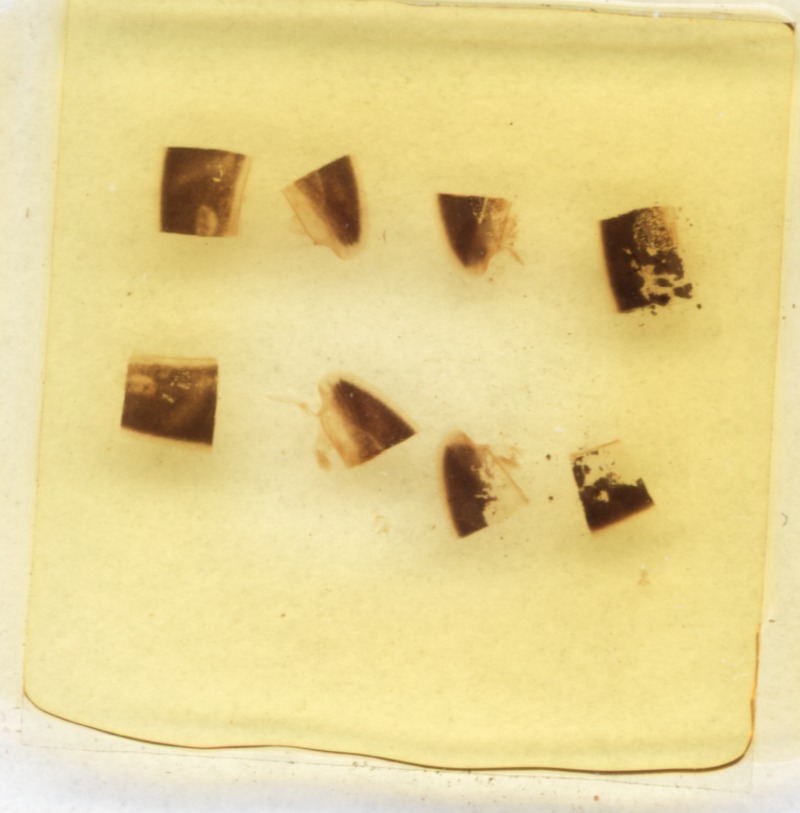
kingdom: Animalia
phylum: Arthropoda
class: Diplopoda
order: Glomerida
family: Glomeridae
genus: Glomeris
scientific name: Glomeris marginata
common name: Bordered pill millipede
